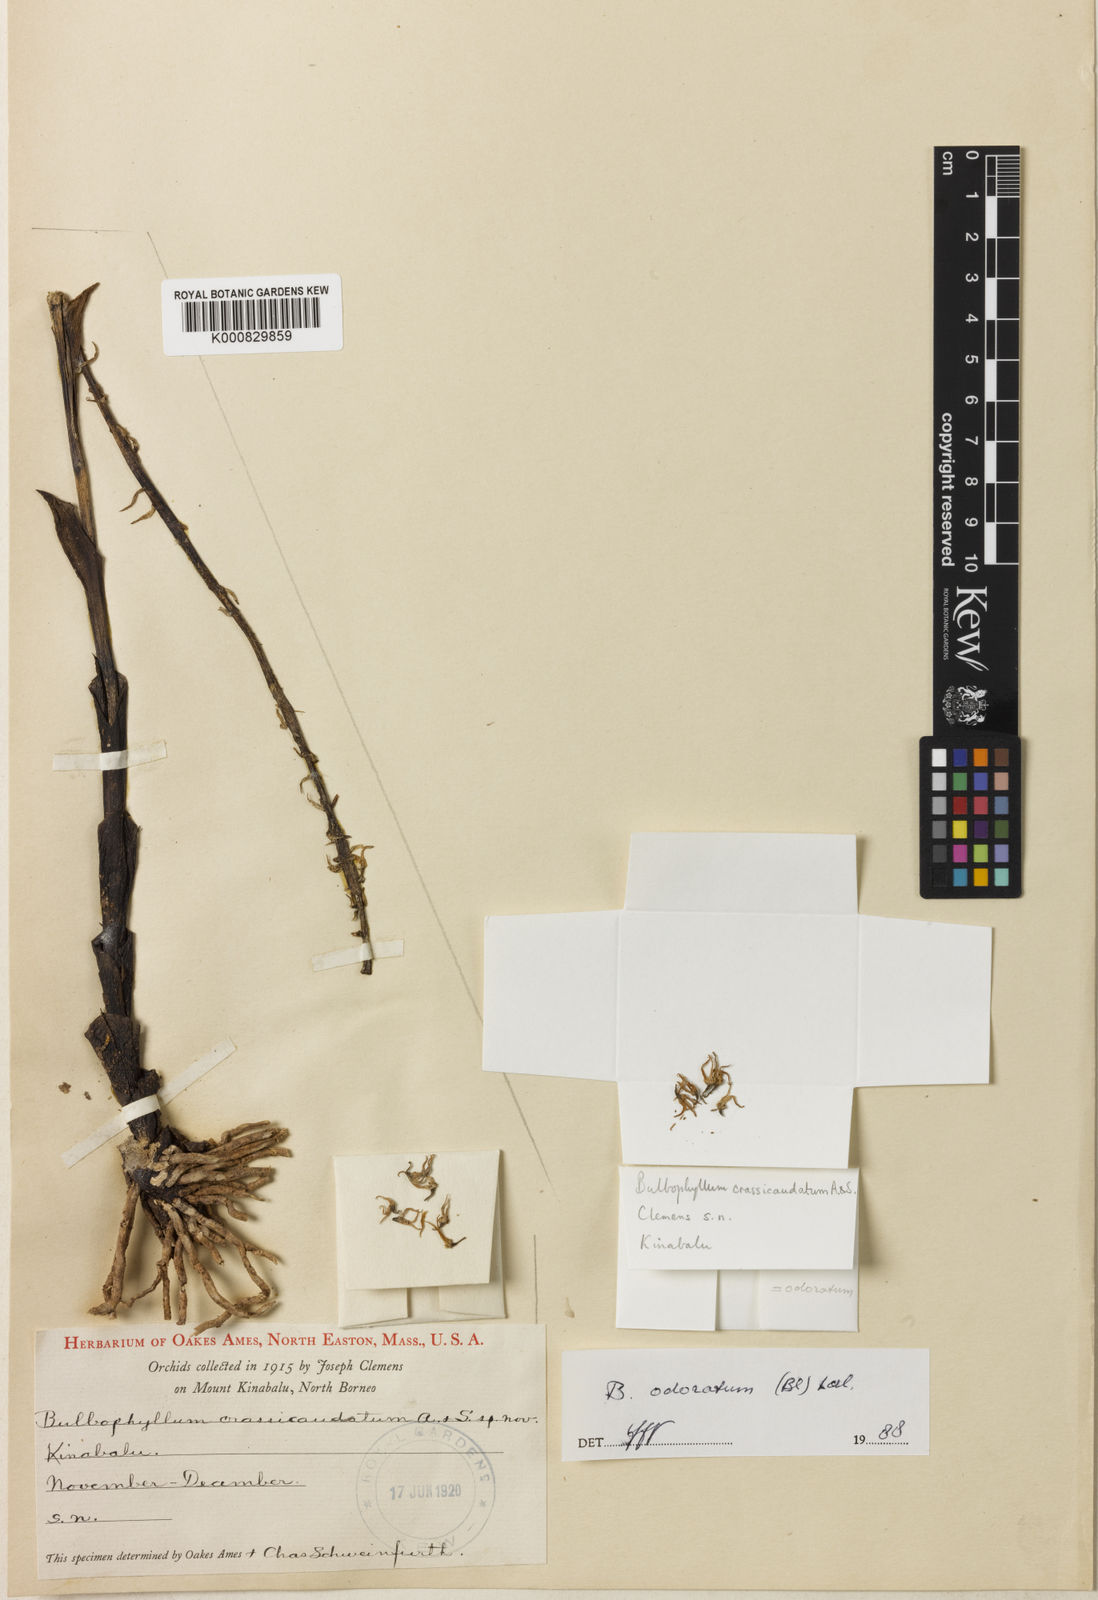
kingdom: Plantae
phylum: Tracheophyta
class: Liliopsida
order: Asparagales
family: Orchidaceae
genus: Bulbophyllum
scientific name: Bulbophyllum odoratum
